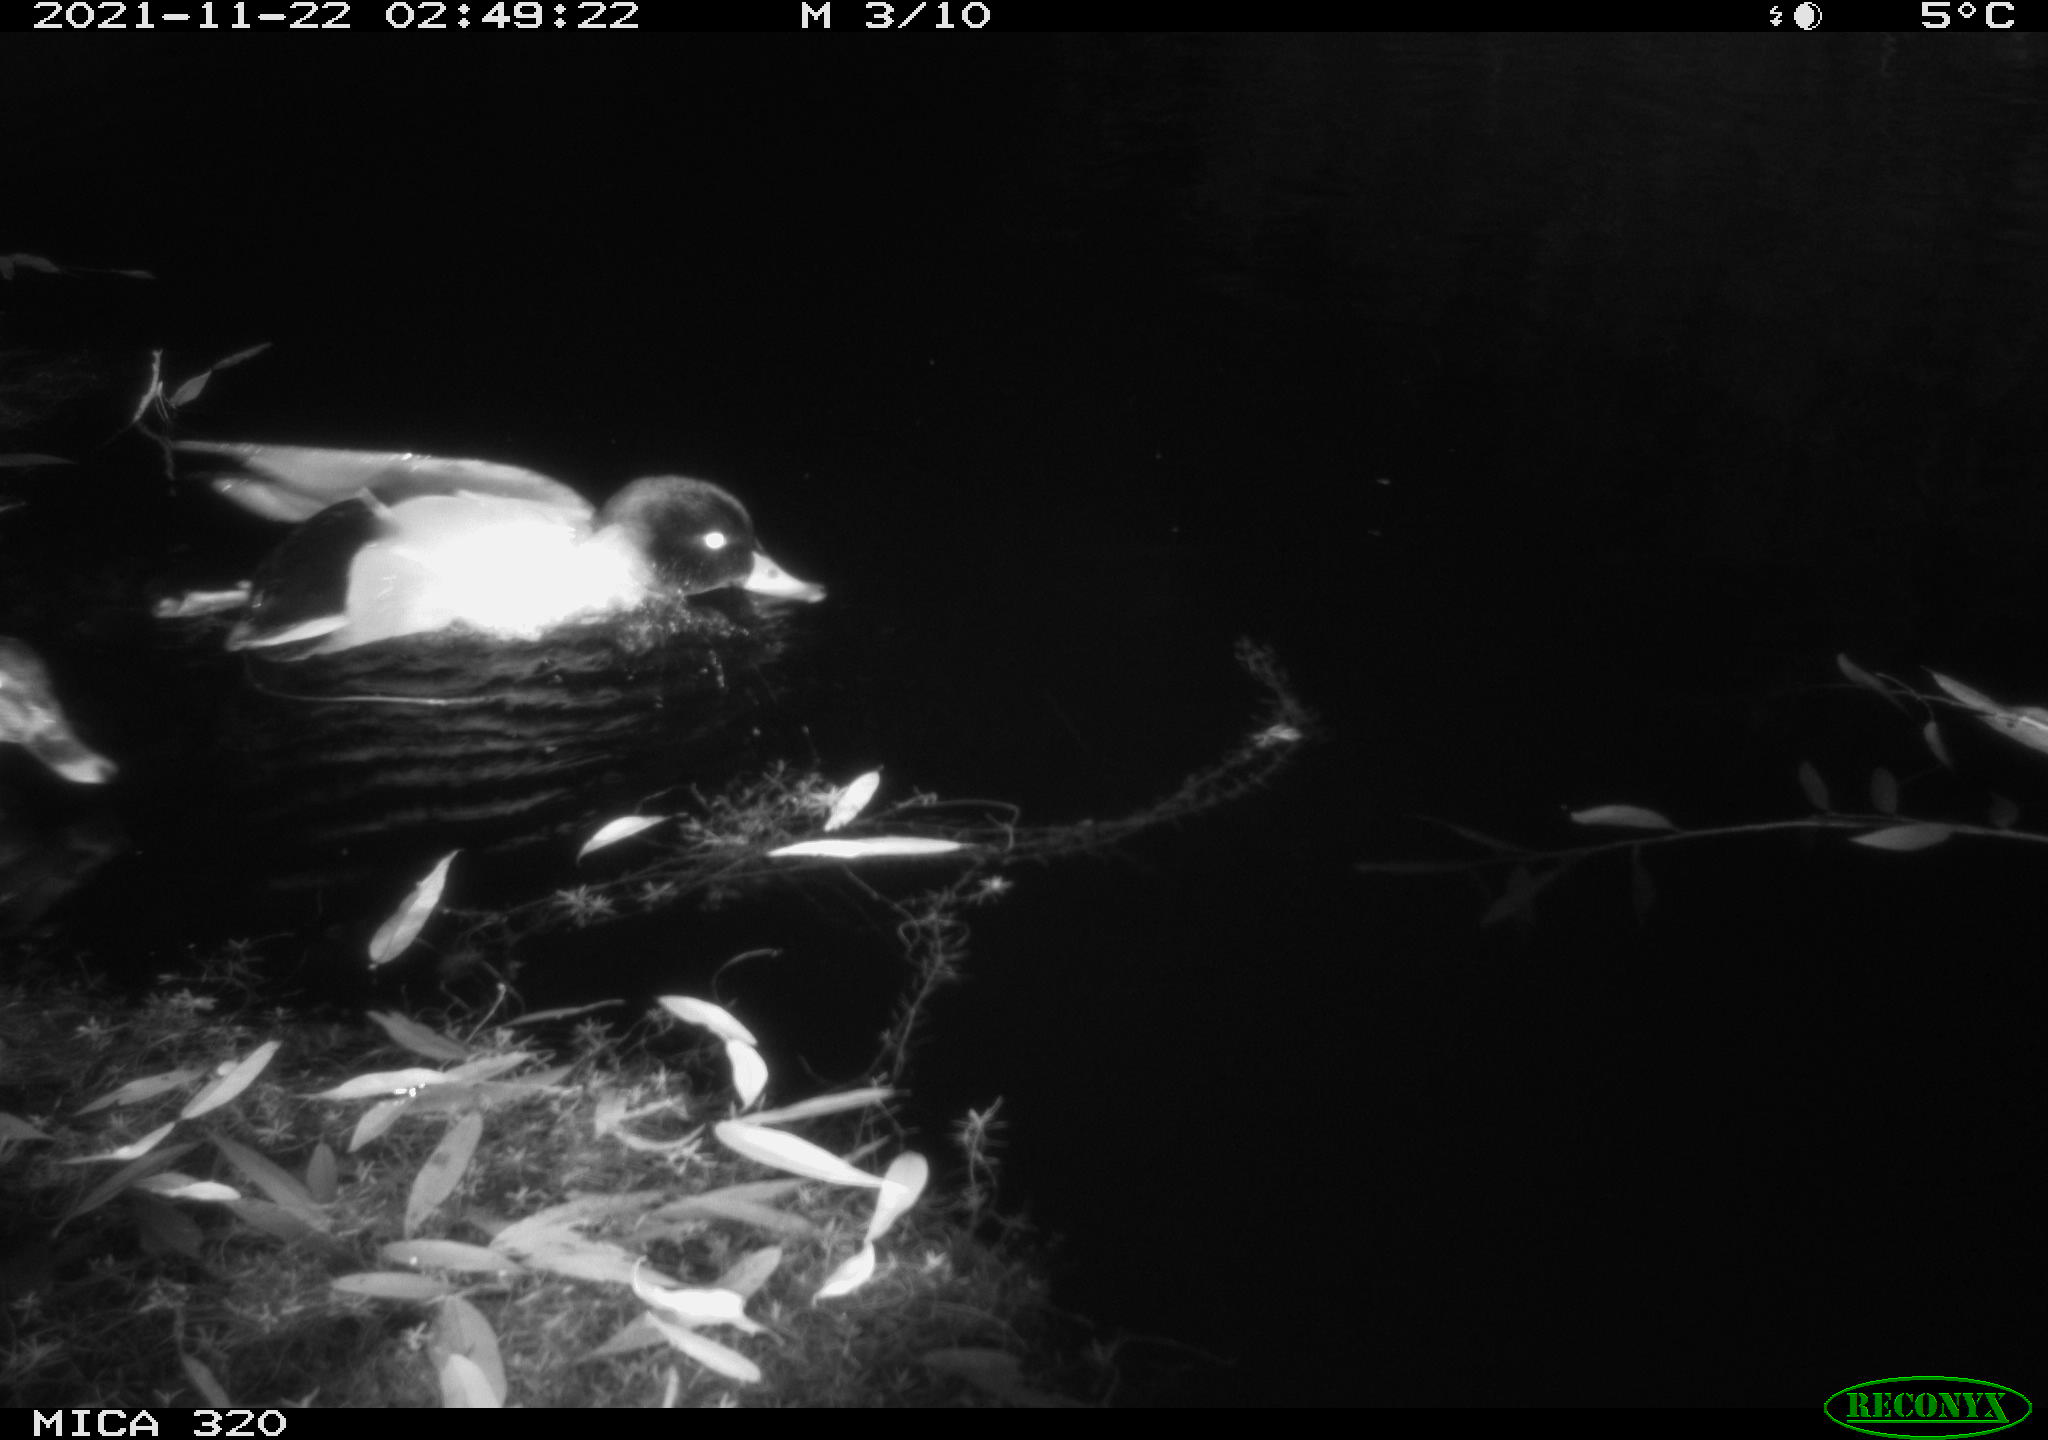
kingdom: Animalia
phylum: Chordata
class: Aves
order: Anseriformes
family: Anatidae
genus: Anas
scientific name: Anas platyrhynchos
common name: Mallard
